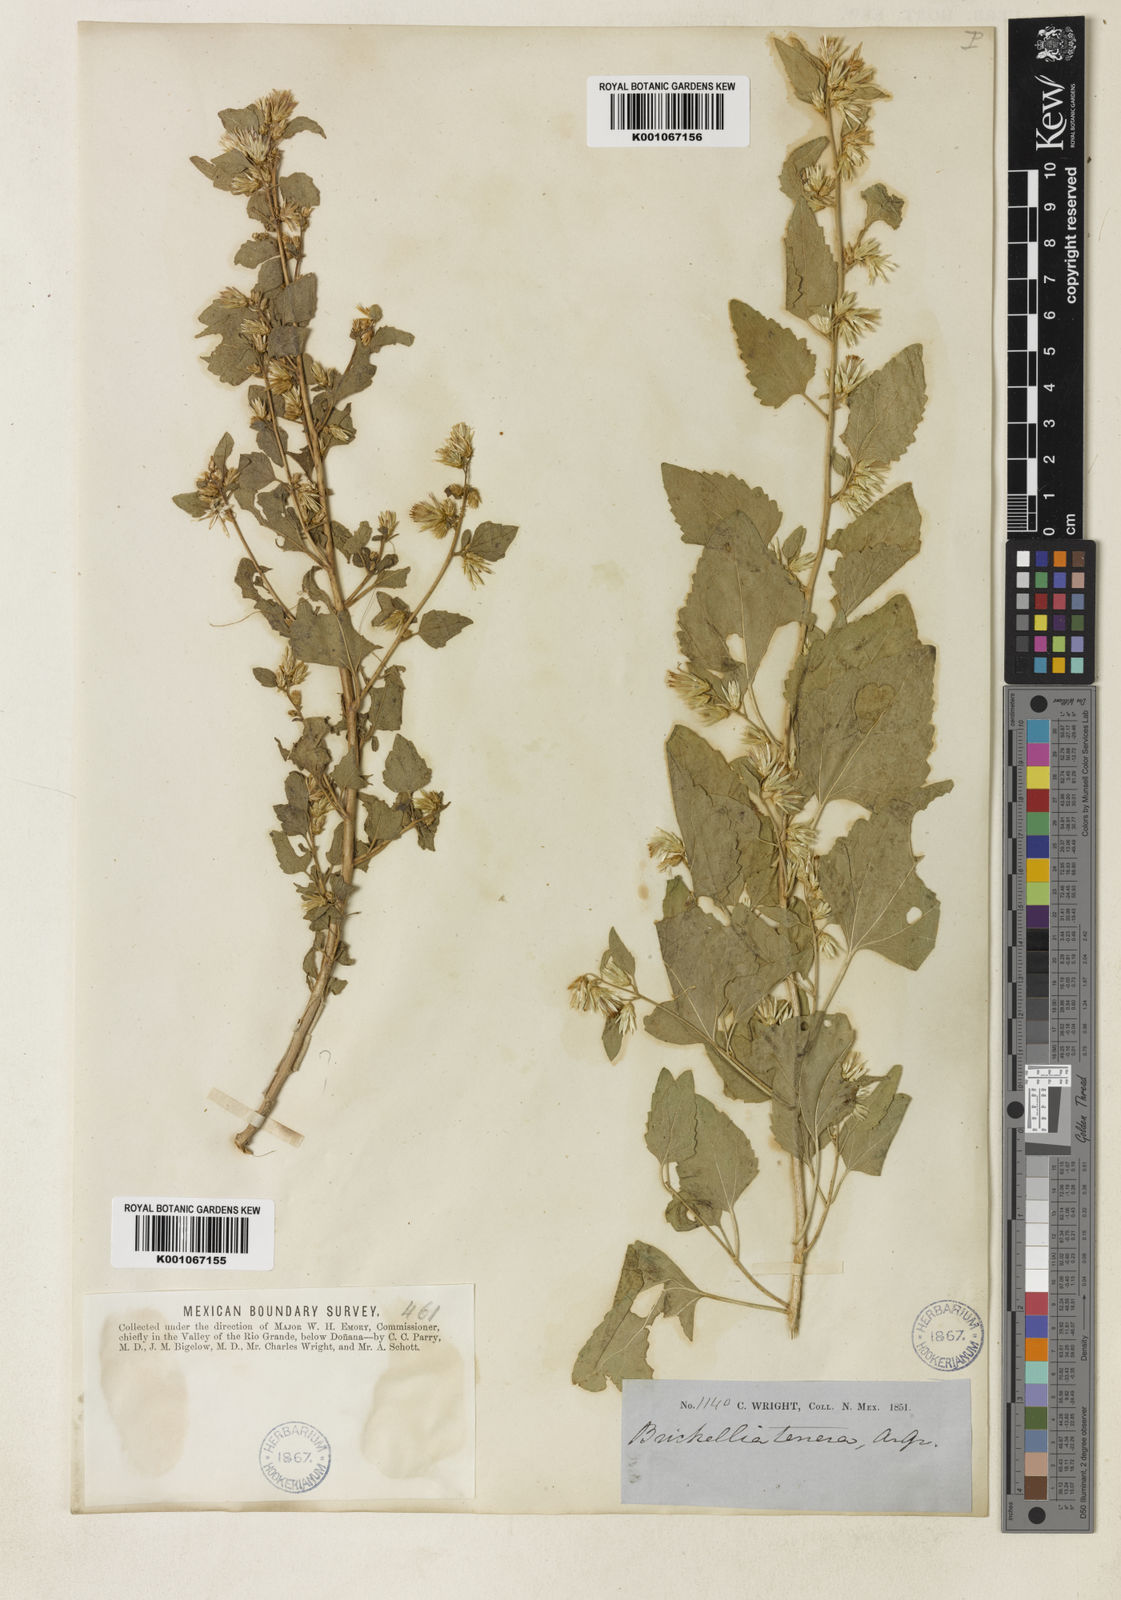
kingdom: Plantae
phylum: Tracheophyta
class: Magnoliopsida
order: Asterales
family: Asteraceae
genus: Brickellia
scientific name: Brickellia californica
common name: California brickellbush
